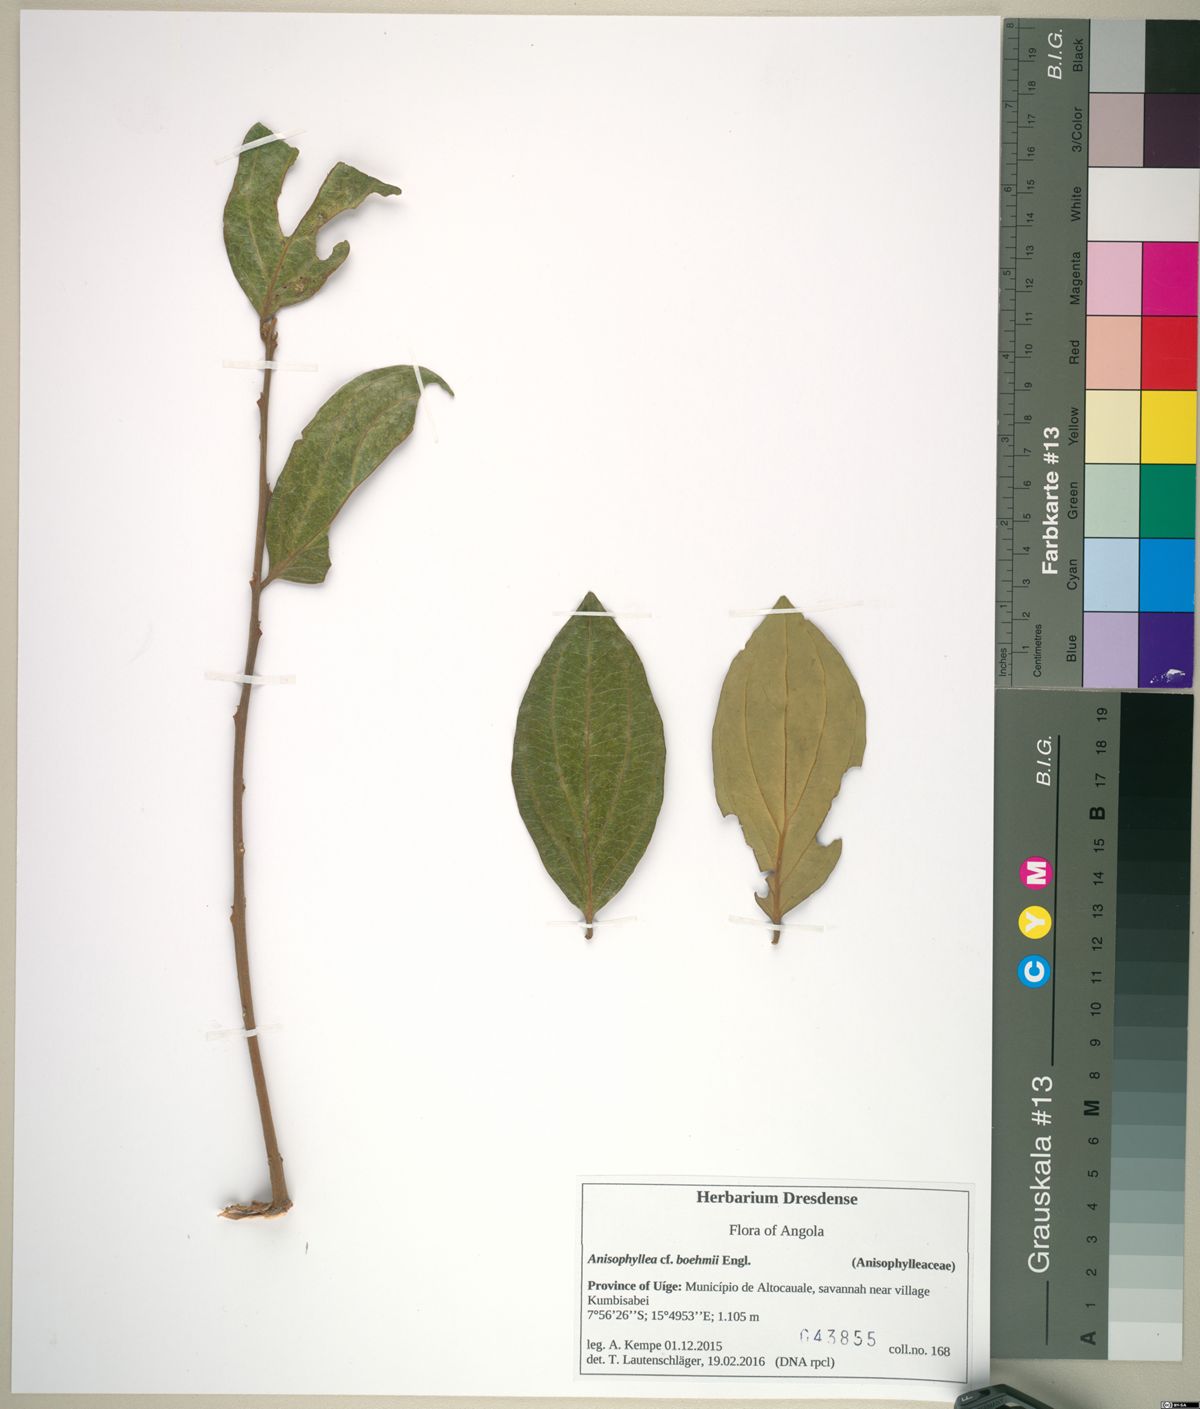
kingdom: Plantae
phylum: Tracheophyta
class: Magnoliopsida
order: Cucurbitales
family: Anisophylleaceae
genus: Anisophyllea
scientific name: Anisophyllea boehmii
